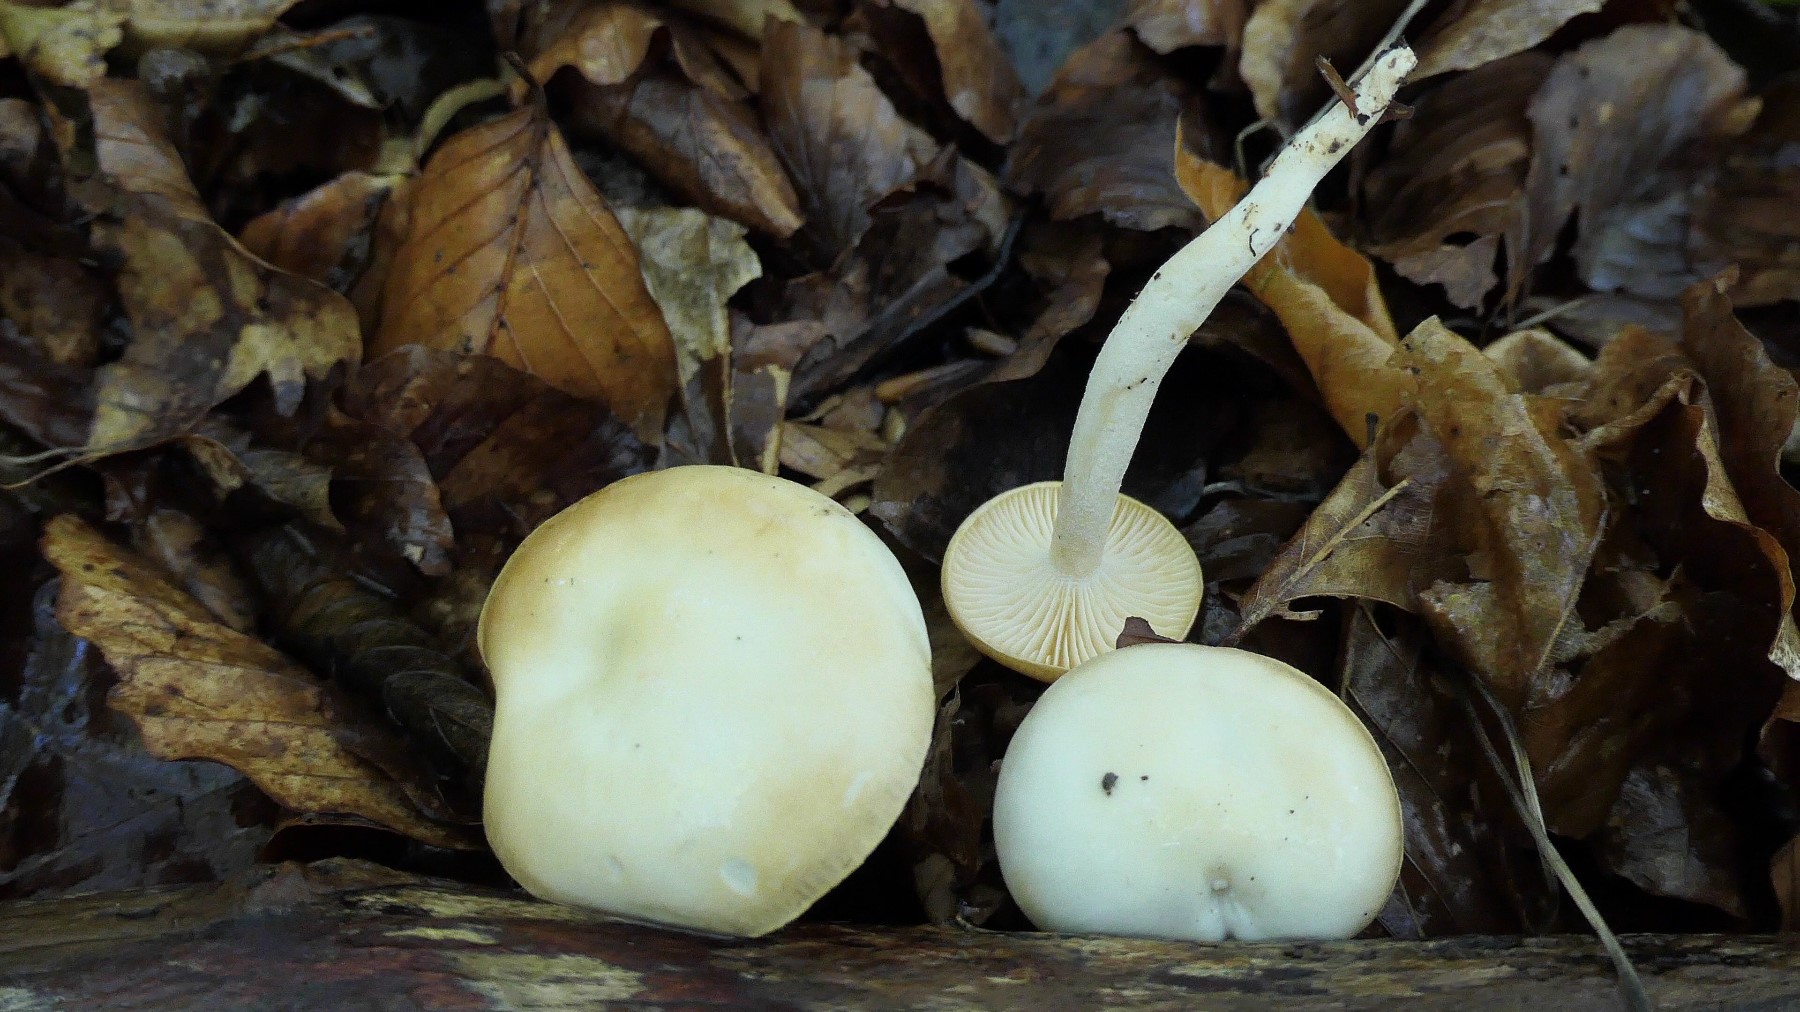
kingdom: Fungi
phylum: Basidiomycota
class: Agaricomycetes
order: Agaricales
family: Hygrophoraceae
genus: Hygrophorus
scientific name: Hygrophorus discoxanthus
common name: ildelugtende sneglehat
